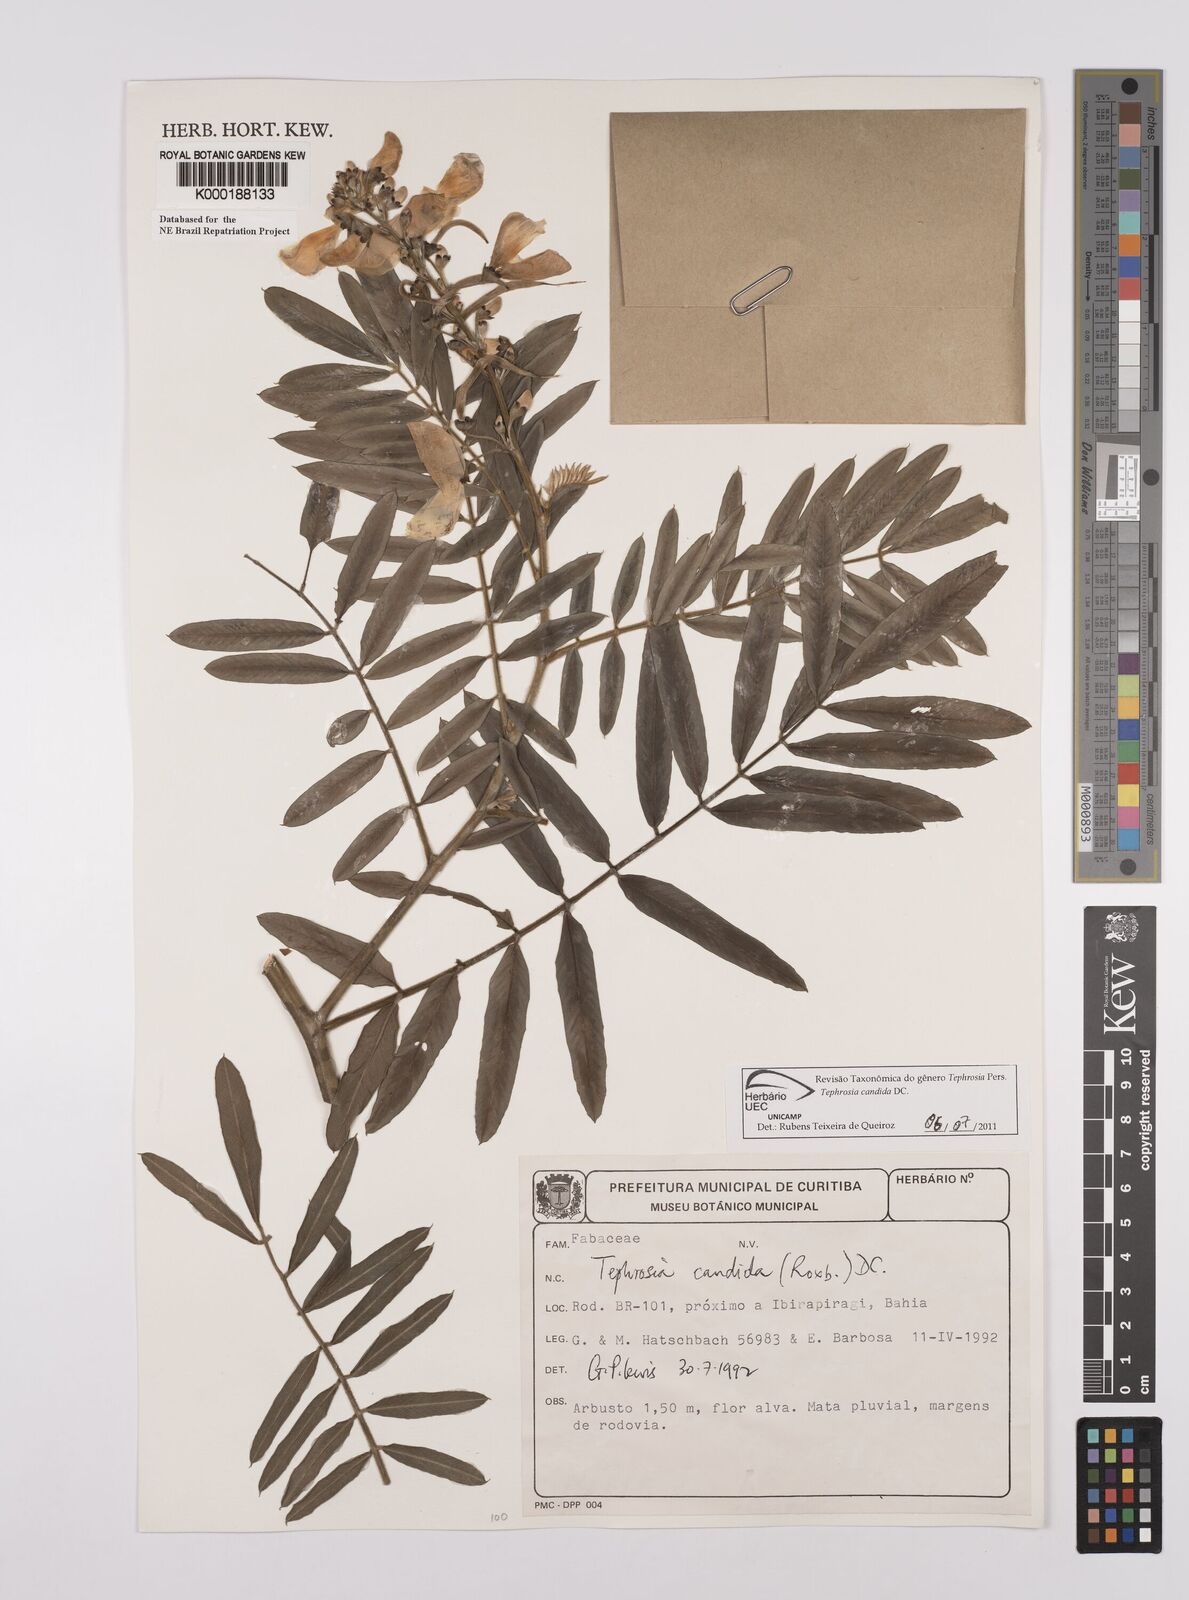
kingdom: Plantae
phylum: Tracheophyta
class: Magnoliopsida
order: Fabales
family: Fabaceae
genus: Tephrosia
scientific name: Tephrosia candida
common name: White tephrosia
